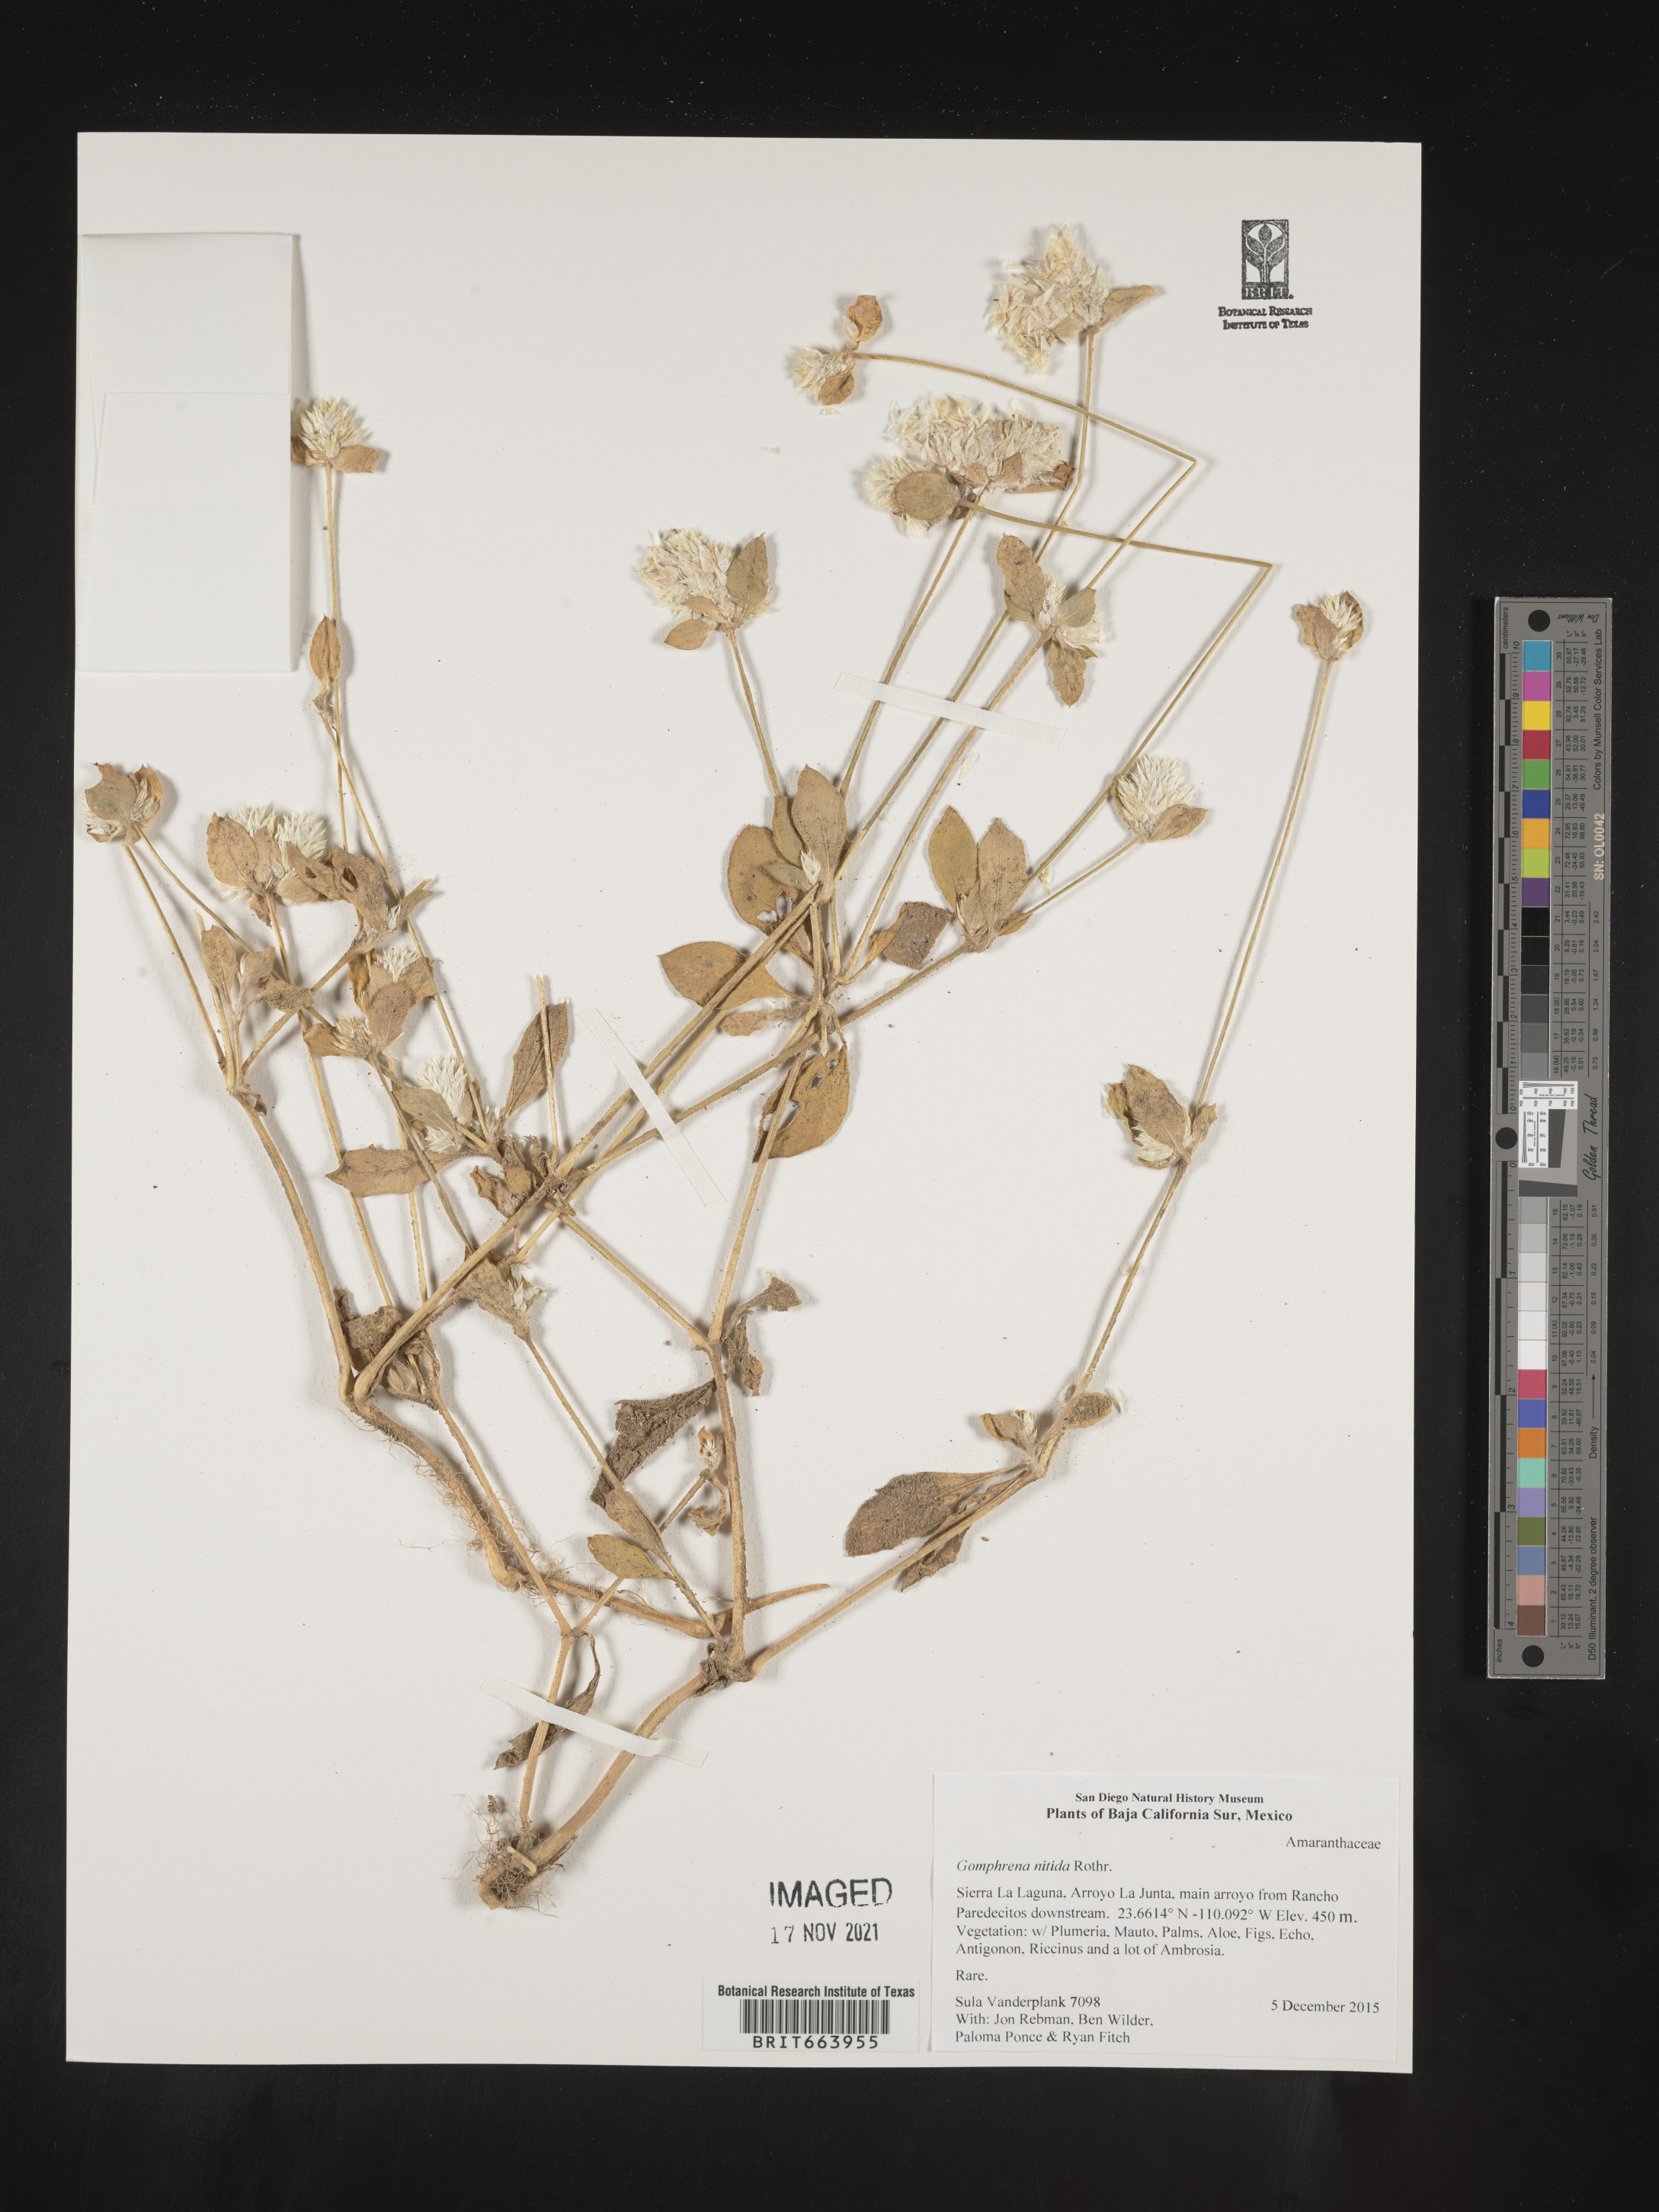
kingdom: Plantae
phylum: Tracheophyta
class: Magnoliopsida
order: Caryophyllales
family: Amaranthaceae
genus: Gomphrena
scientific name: Gomphrena
